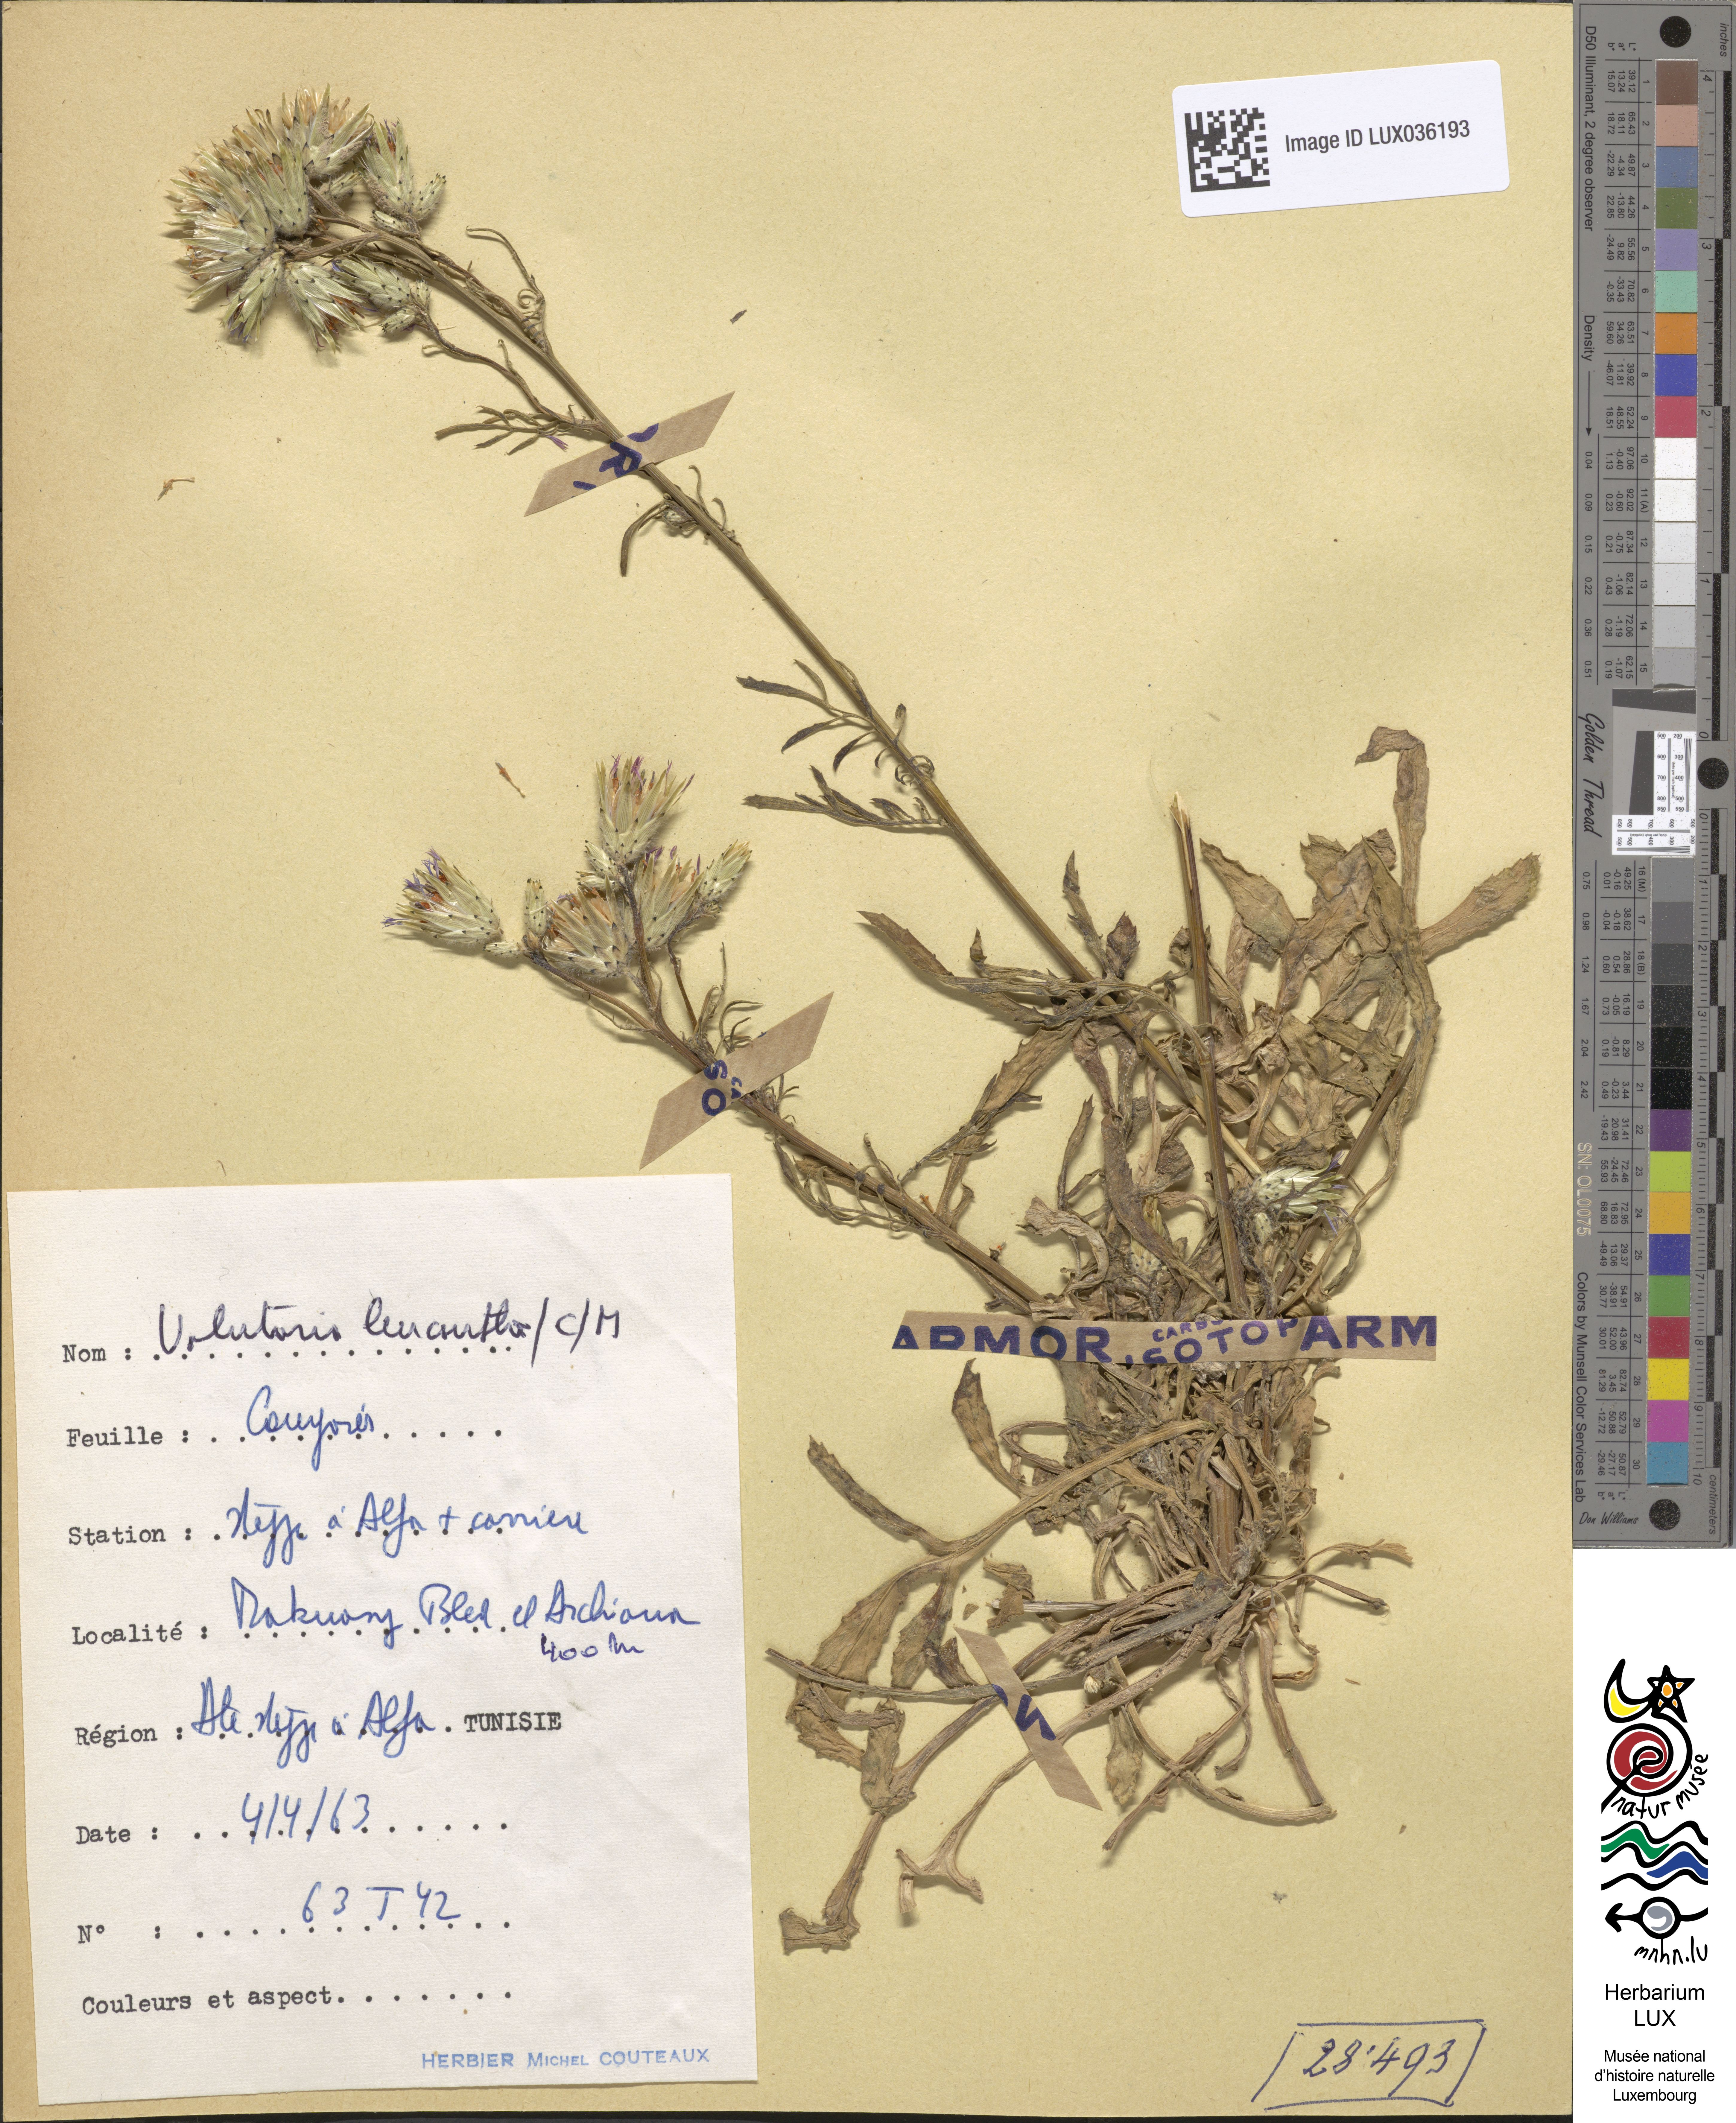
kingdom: Plantae
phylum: Tracheophyta
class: Magnoliopsida
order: Asterales
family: Asteraceae
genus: Volutaria
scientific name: Volutaria sinaica
